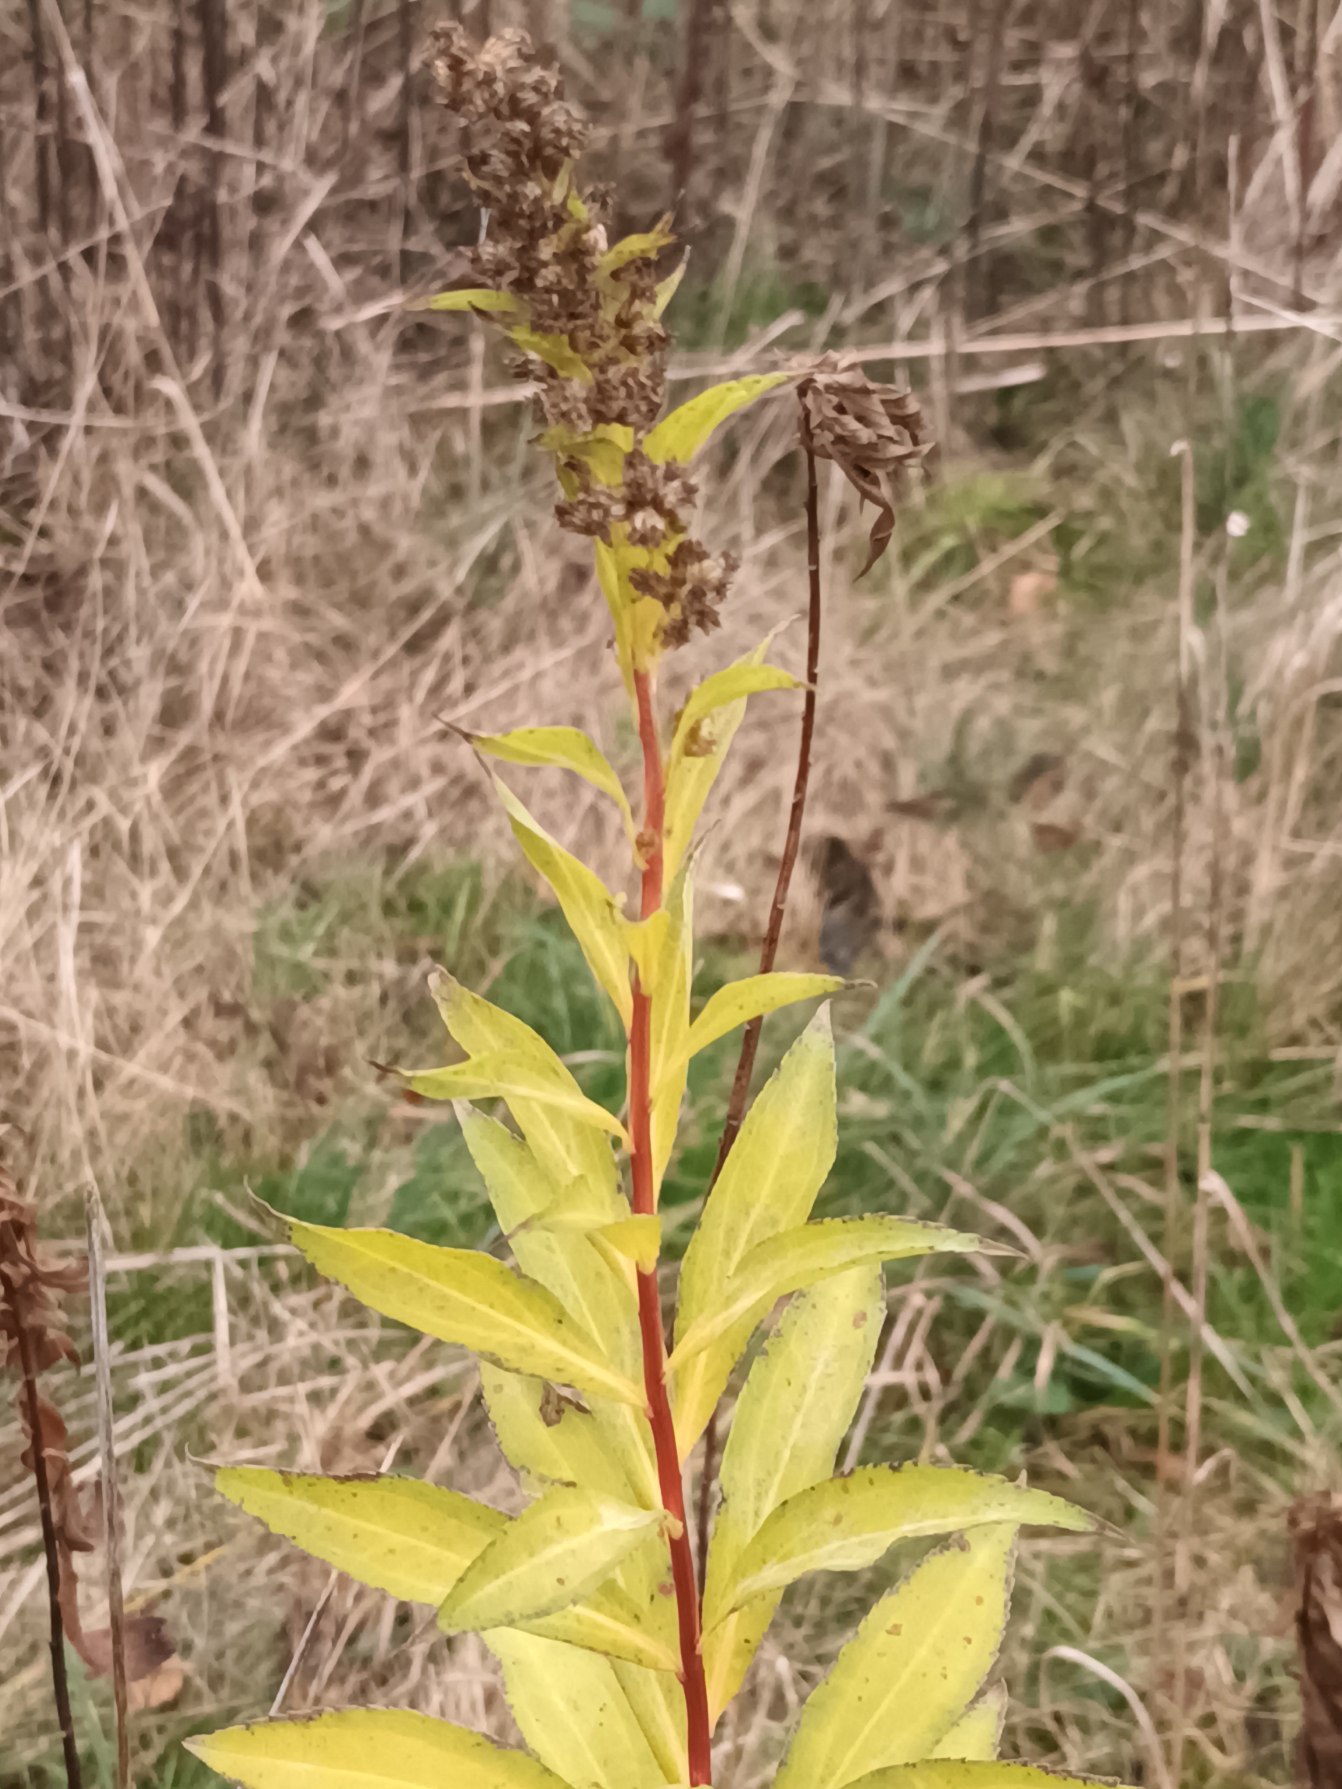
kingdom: Plantae
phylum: Tracheophyta
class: Magnoliopsida
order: Asterales
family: Asteraceae
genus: Solidago
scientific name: Solidago gigantea
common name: Sildig gyldenris
